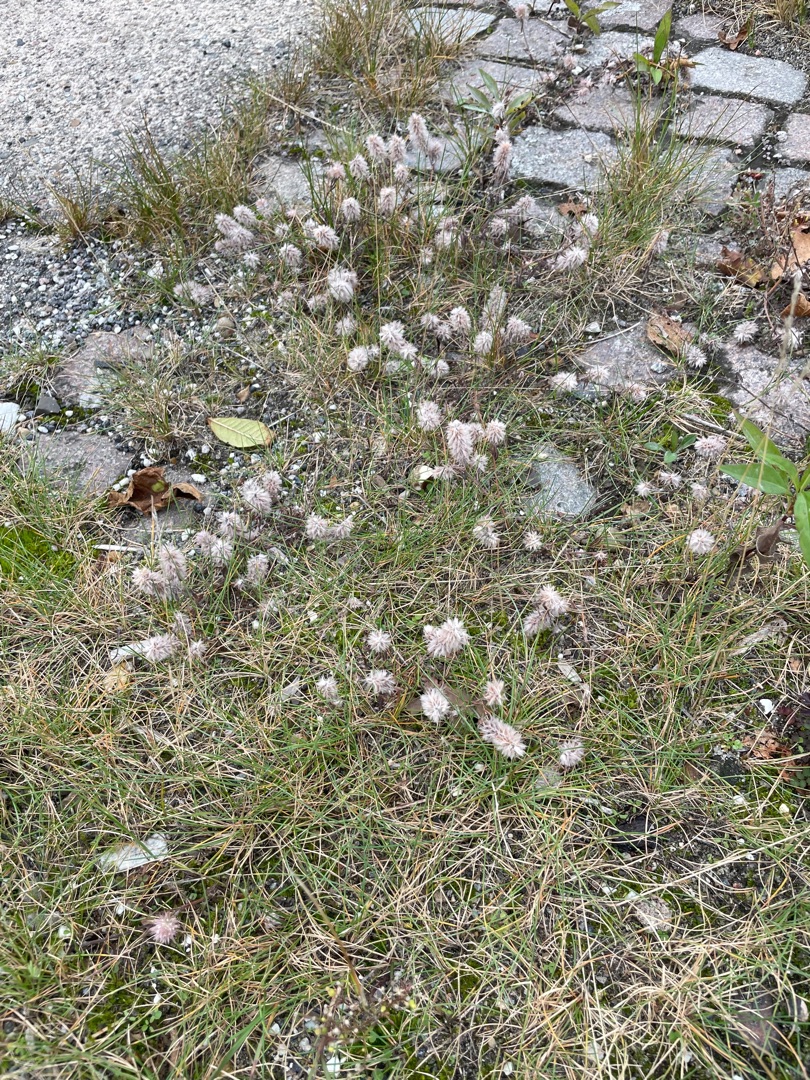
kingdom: Plantae
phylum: Tracheophyta
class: Magnoliopsida
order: Fabales
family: Fabaceae
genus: Trifolium
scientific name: Trifolium arvense
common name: Hare-kløver
